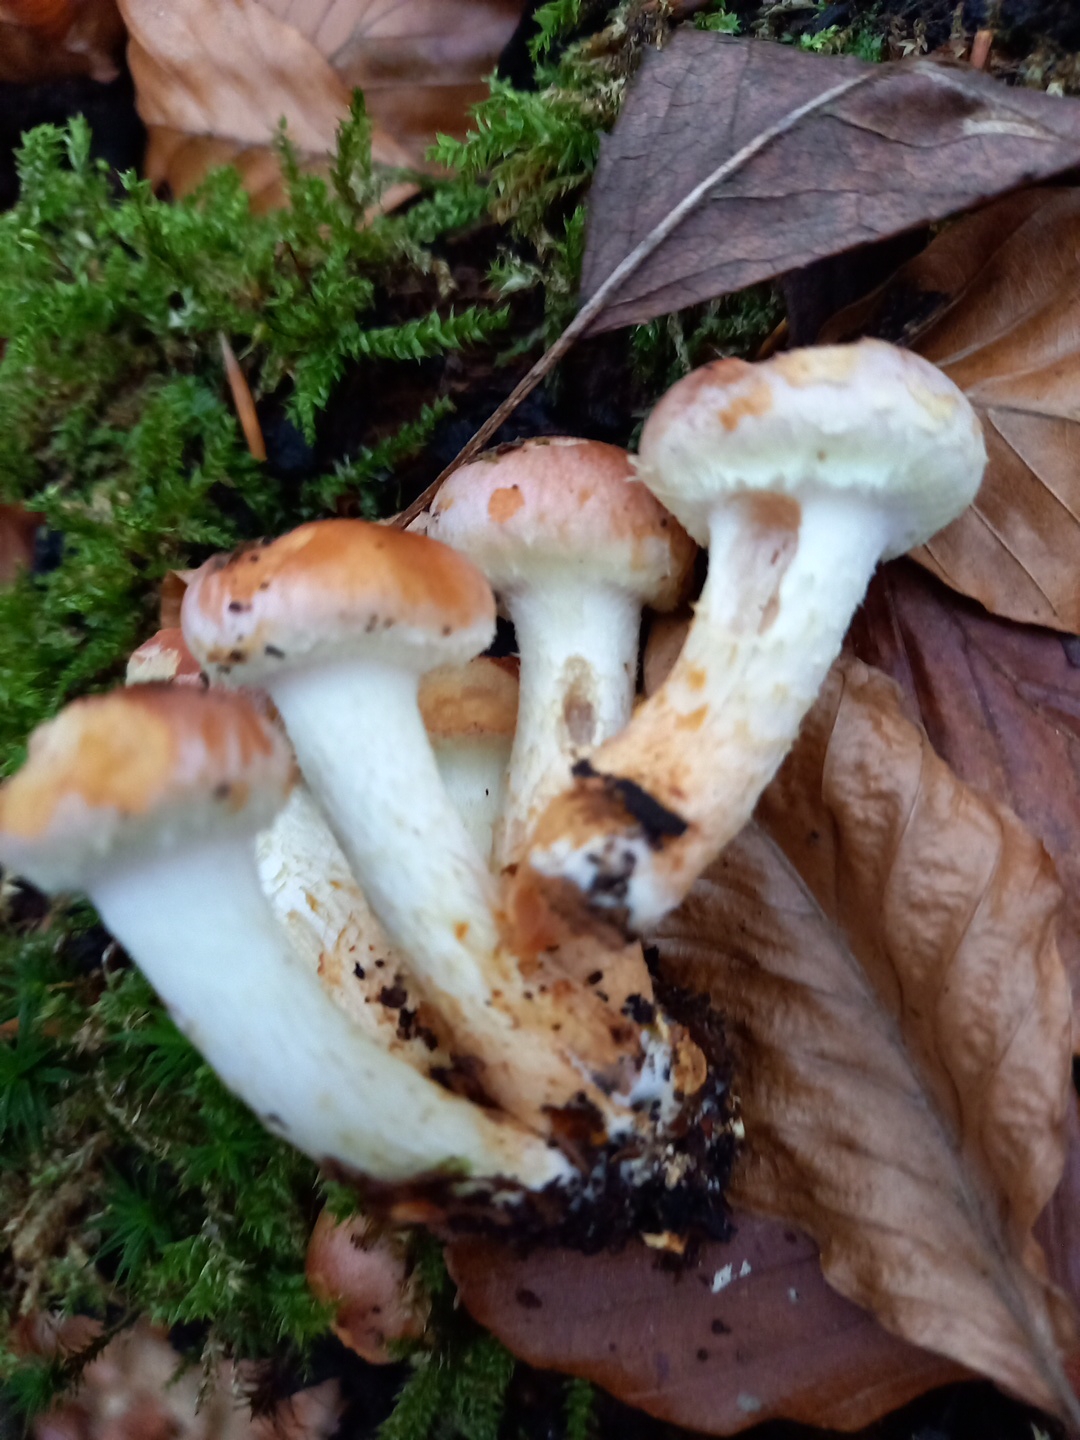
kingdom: Fungi
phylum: Basidiomycota
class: Agaricomycetes
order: Agaricales
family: Strophariaceae
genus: Hypholoma
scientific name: Hypholoma lateritium
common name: teglrød svovlhat
